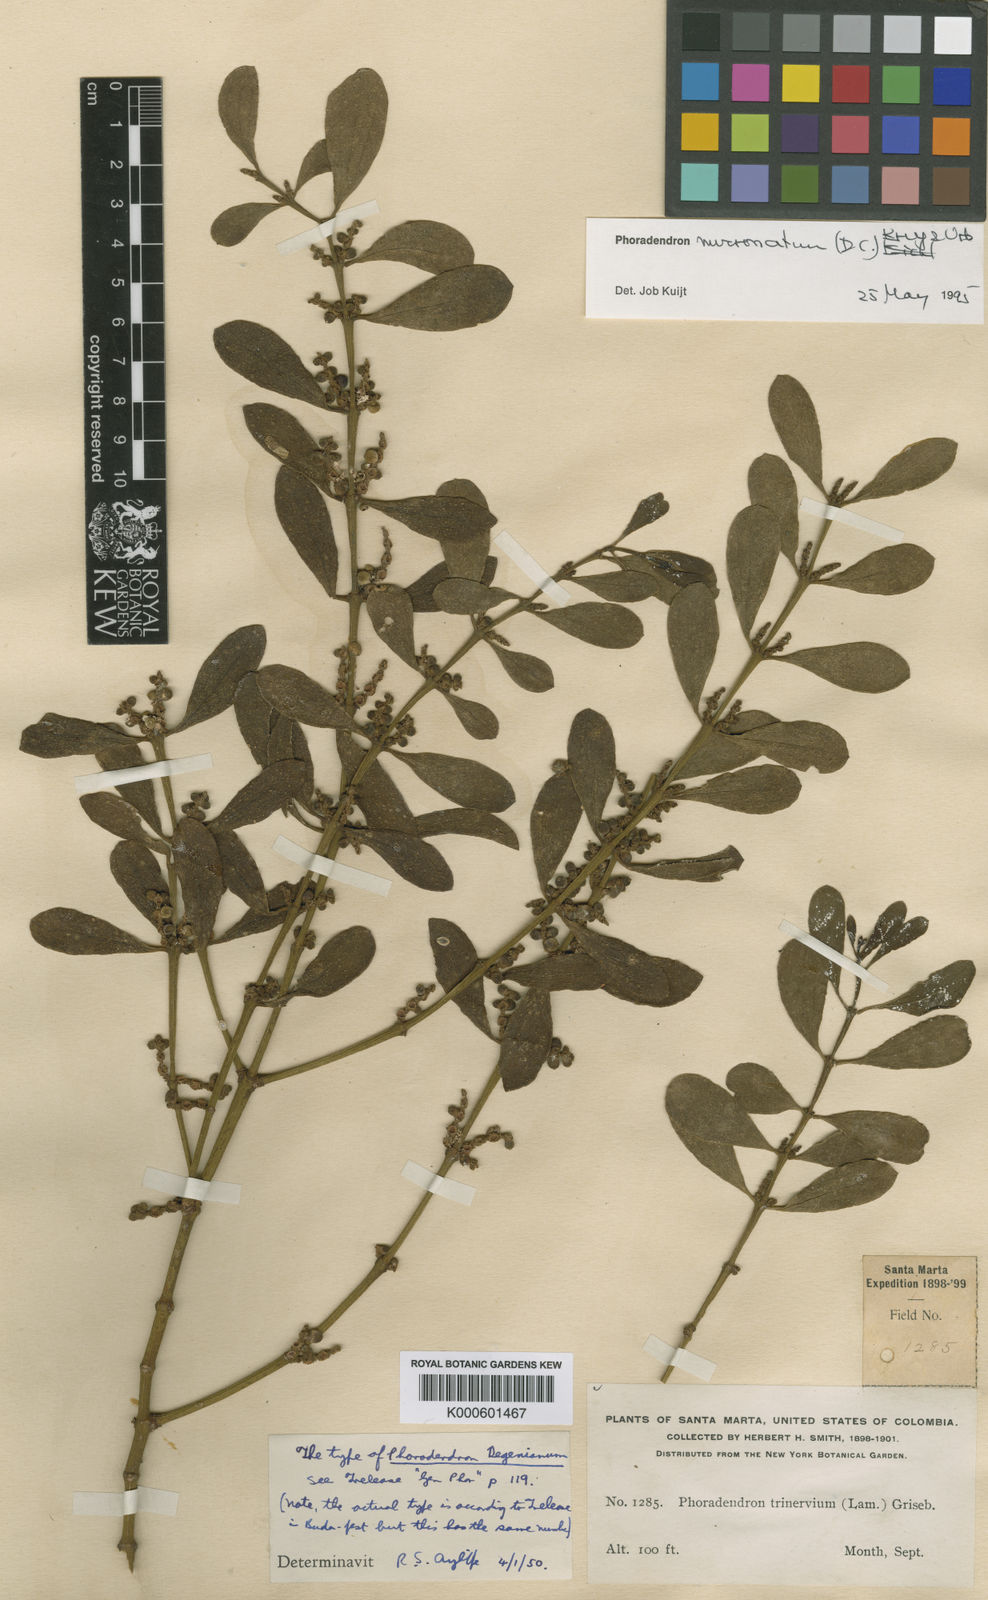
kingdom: Plantae
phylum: Tracheophyta
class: Magnoliopsida
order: Santalales
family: Viscaceae
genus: Phoradendron
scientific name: Phoradendron mucronatum
